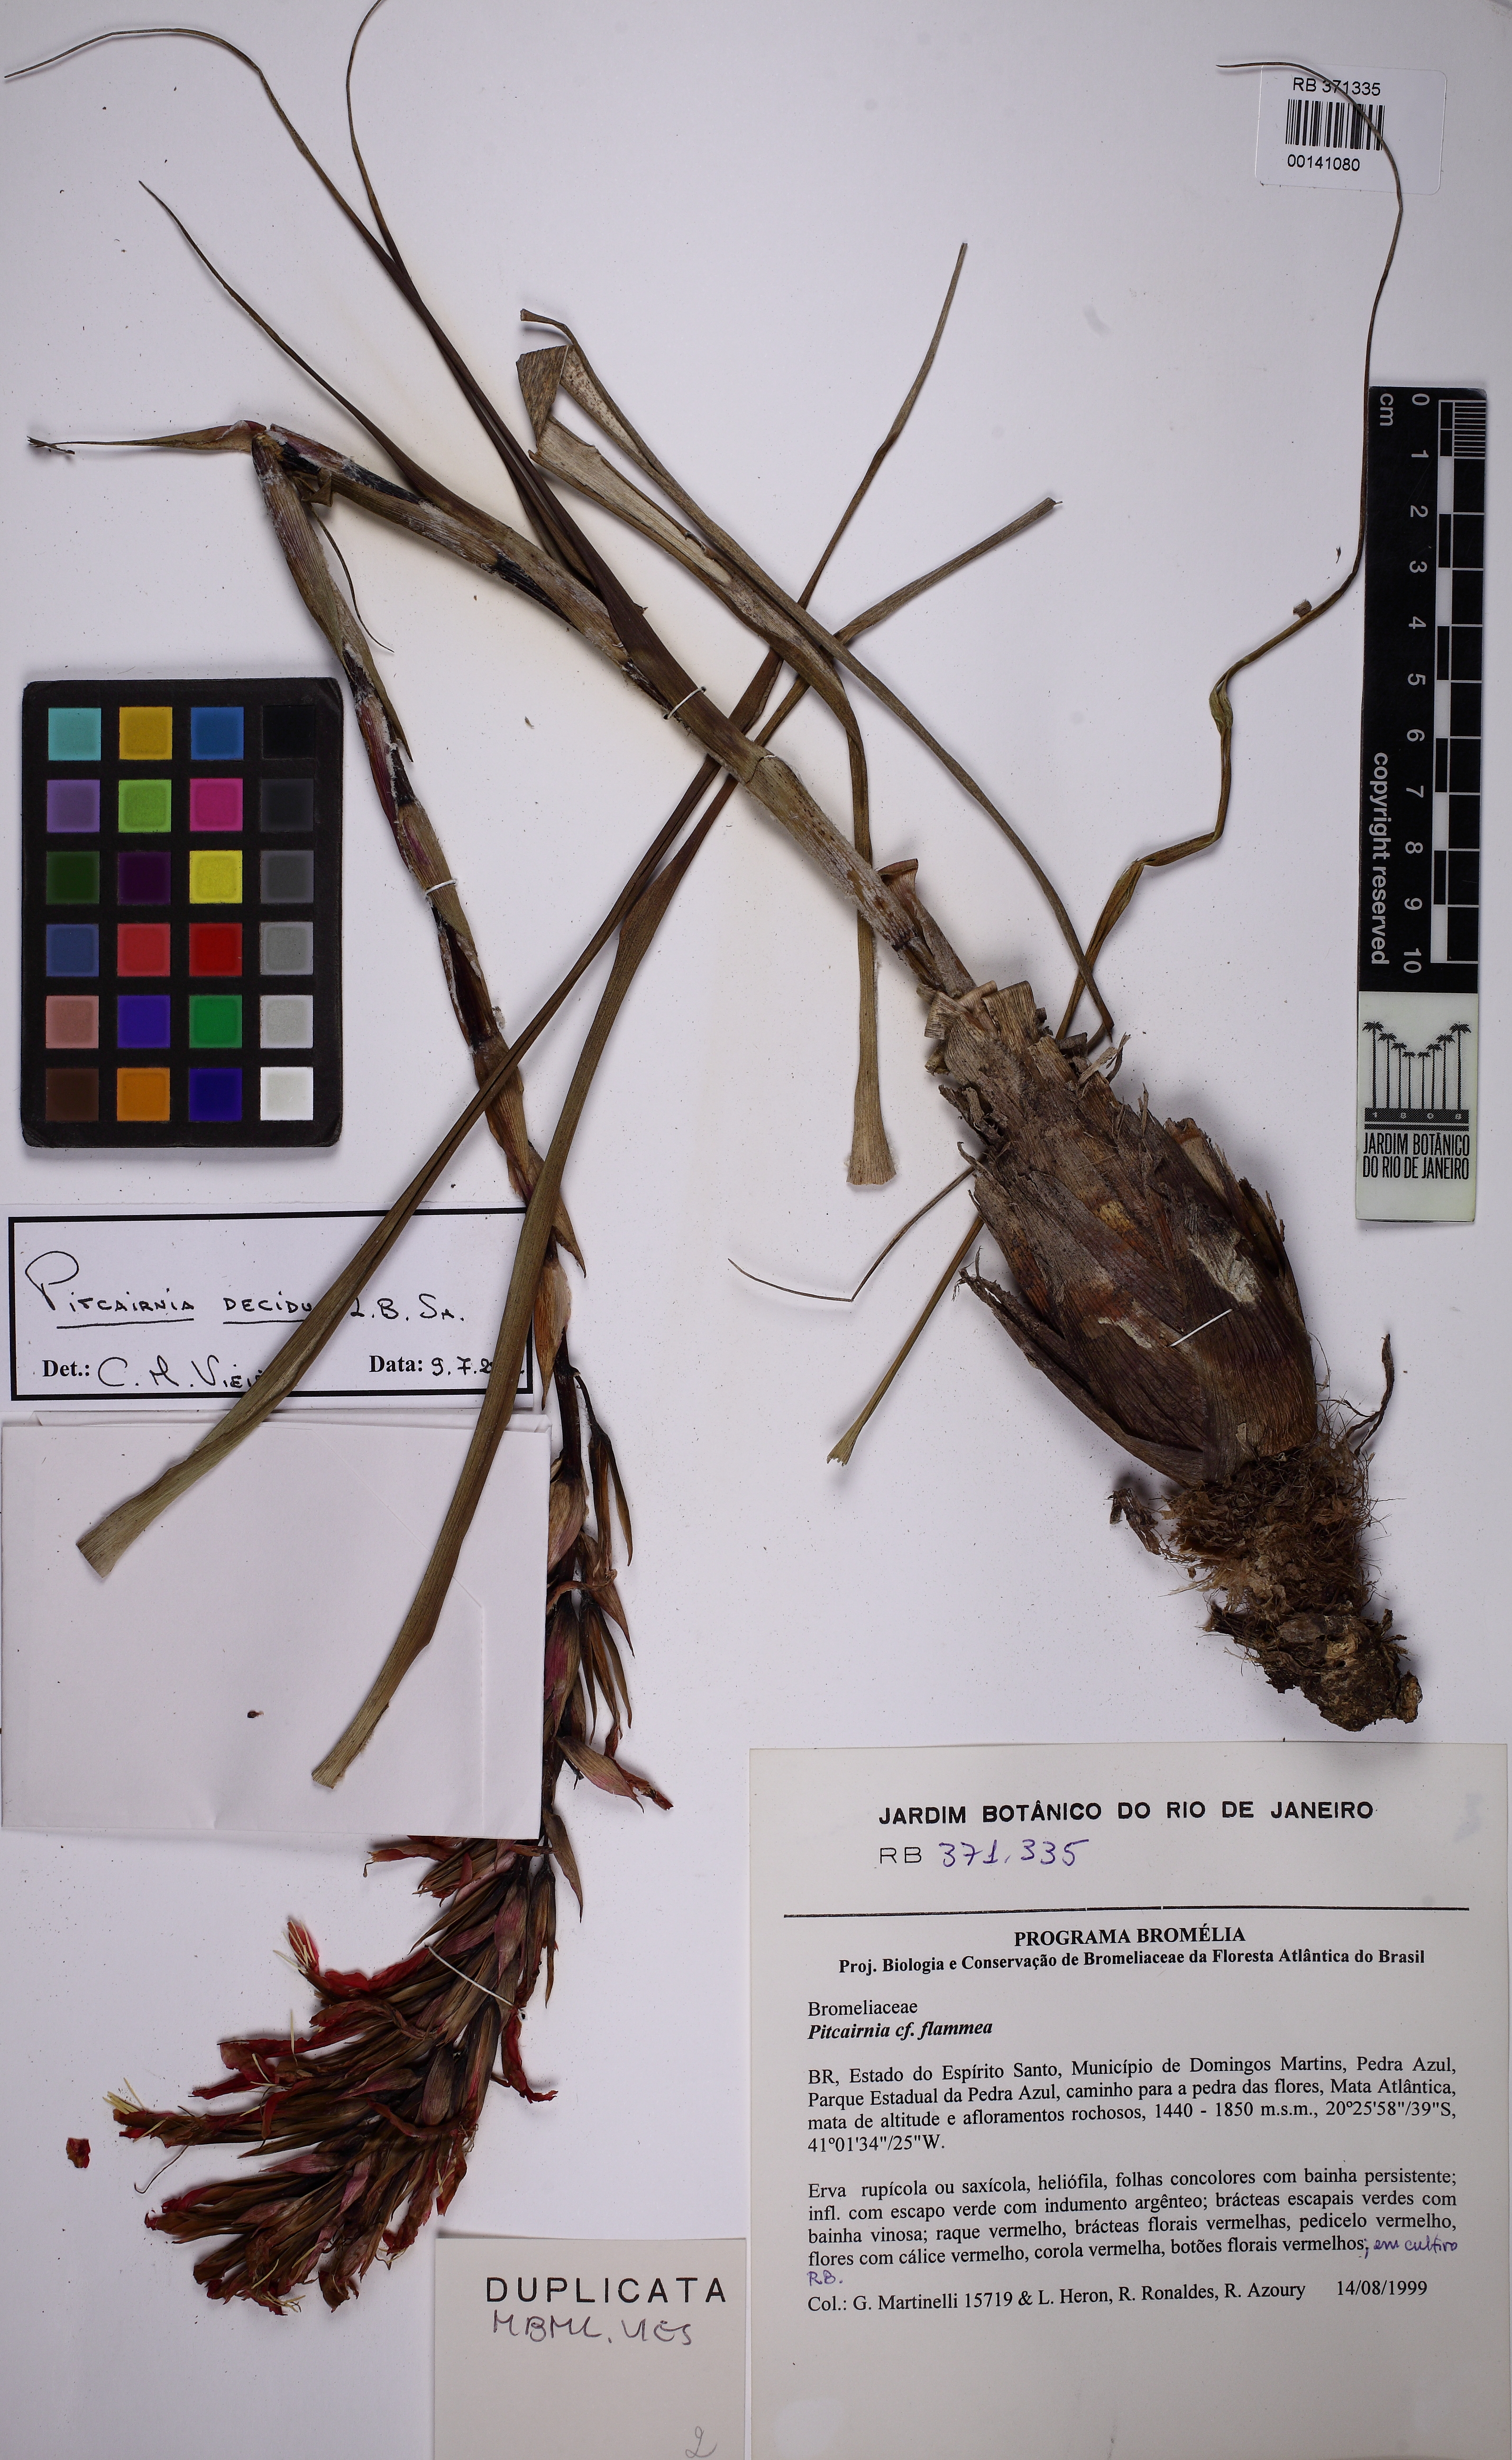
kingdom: Plantae
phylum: Tracheophyta
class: Liliopsida
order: Poales
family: Bromeliaceae
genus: Pitcairnia
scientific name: Pitcairnia decidua
